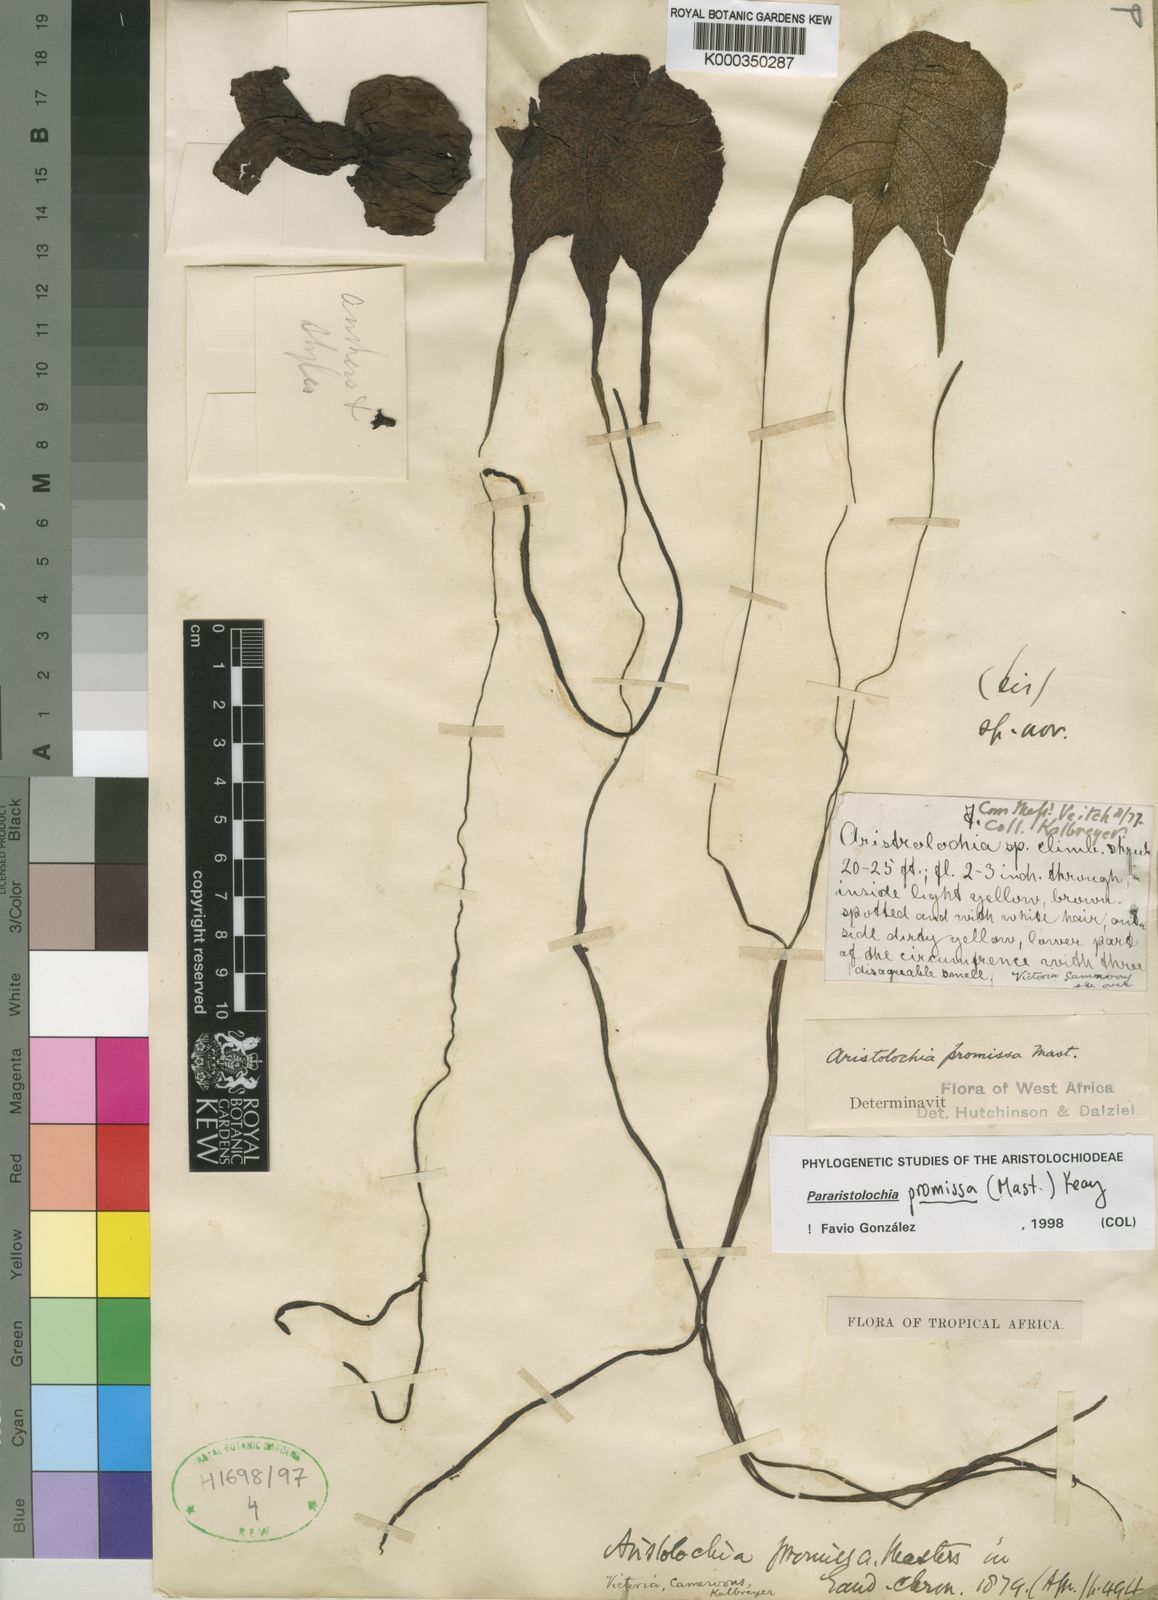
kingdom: Plantae
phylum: Tracheophyta
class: Magnoliopsida
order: Piperales
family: Aristolochiaceae
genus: Aristolochia
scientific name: Aristolochia promissa
